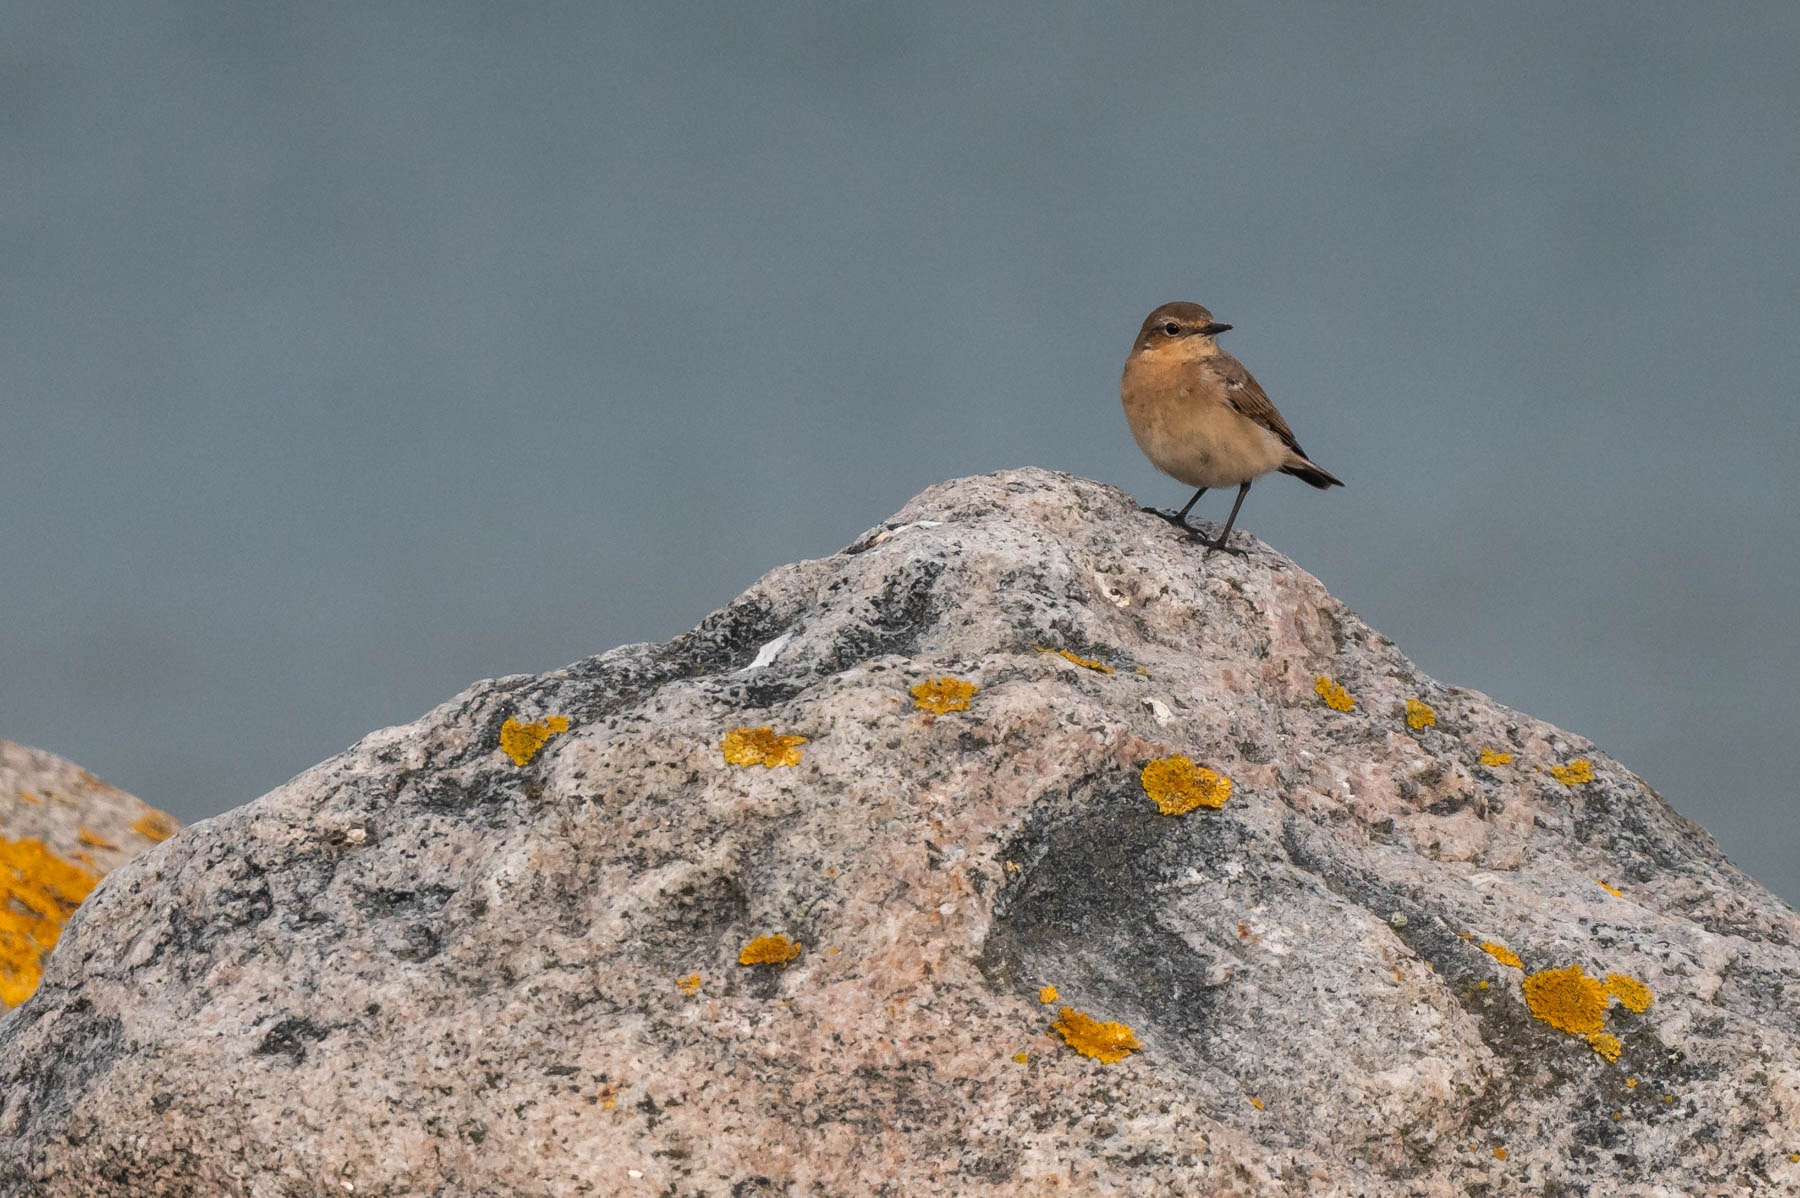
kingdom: Animalia
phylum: Chordata
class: Aves
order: Passeriformes
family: Muscicapidae
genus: Oenanthe
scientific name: Oenanthe oenanthe
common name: Stenpikker
